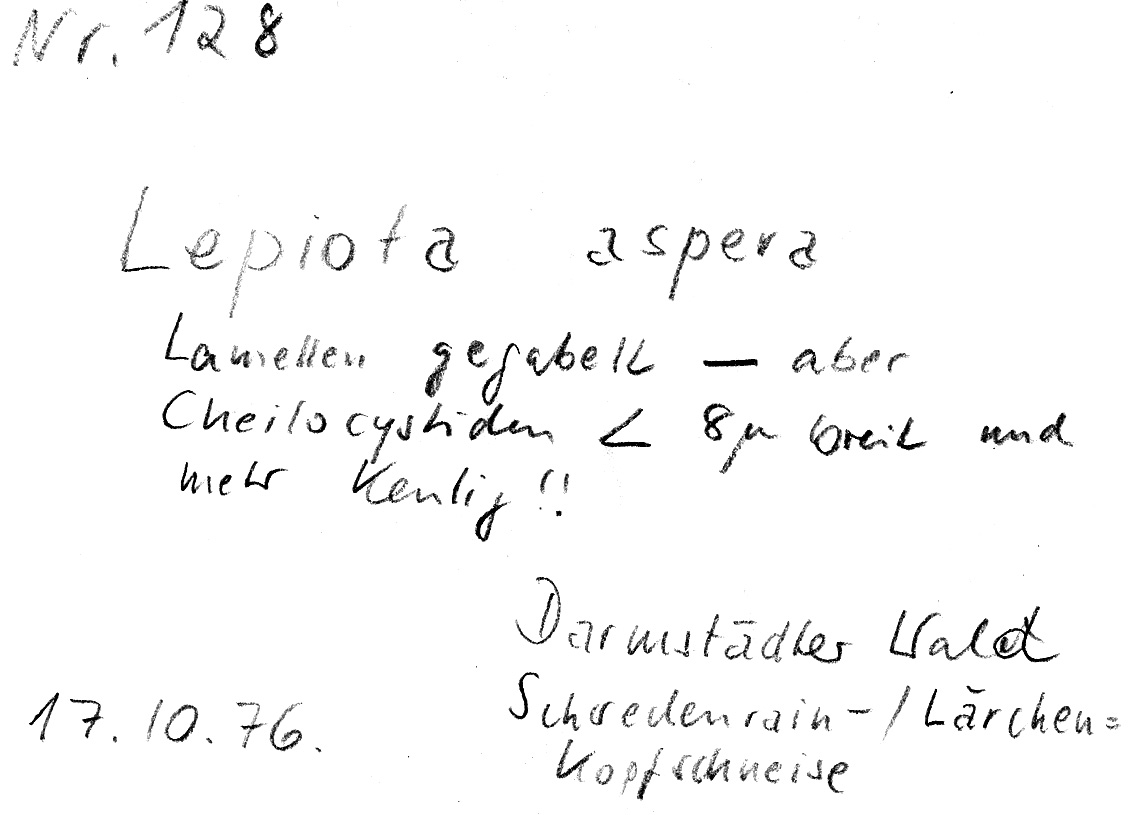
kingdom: Fungi
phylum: Basidiomycota
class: Agaricomycetes
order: Agaricales
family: Agaricaceae
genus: Echinoderma
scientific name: Echinoderma asperum
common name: Freckled dapperling
